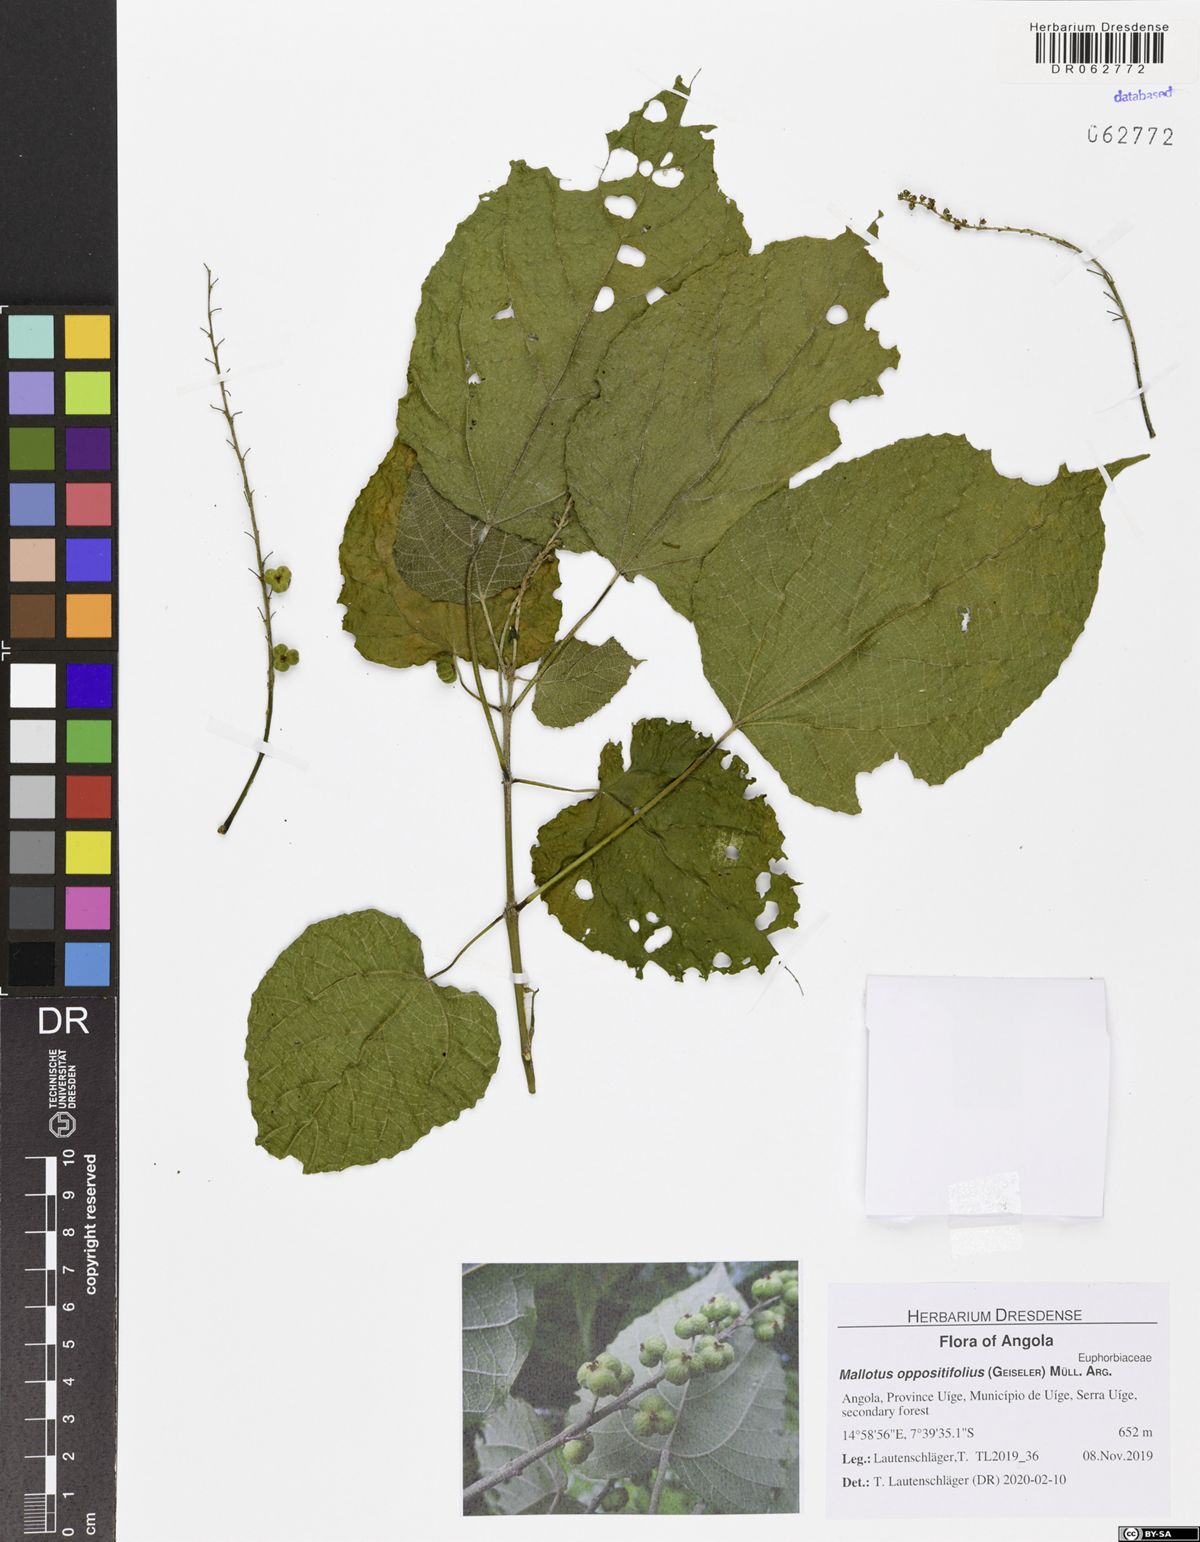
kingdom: Plantae
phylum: Tracheophyta
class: Magnoliopsida
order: Malpighiales
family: Euphorbiaceae
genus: Mallotus
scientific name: Mallotus oppositifolius
